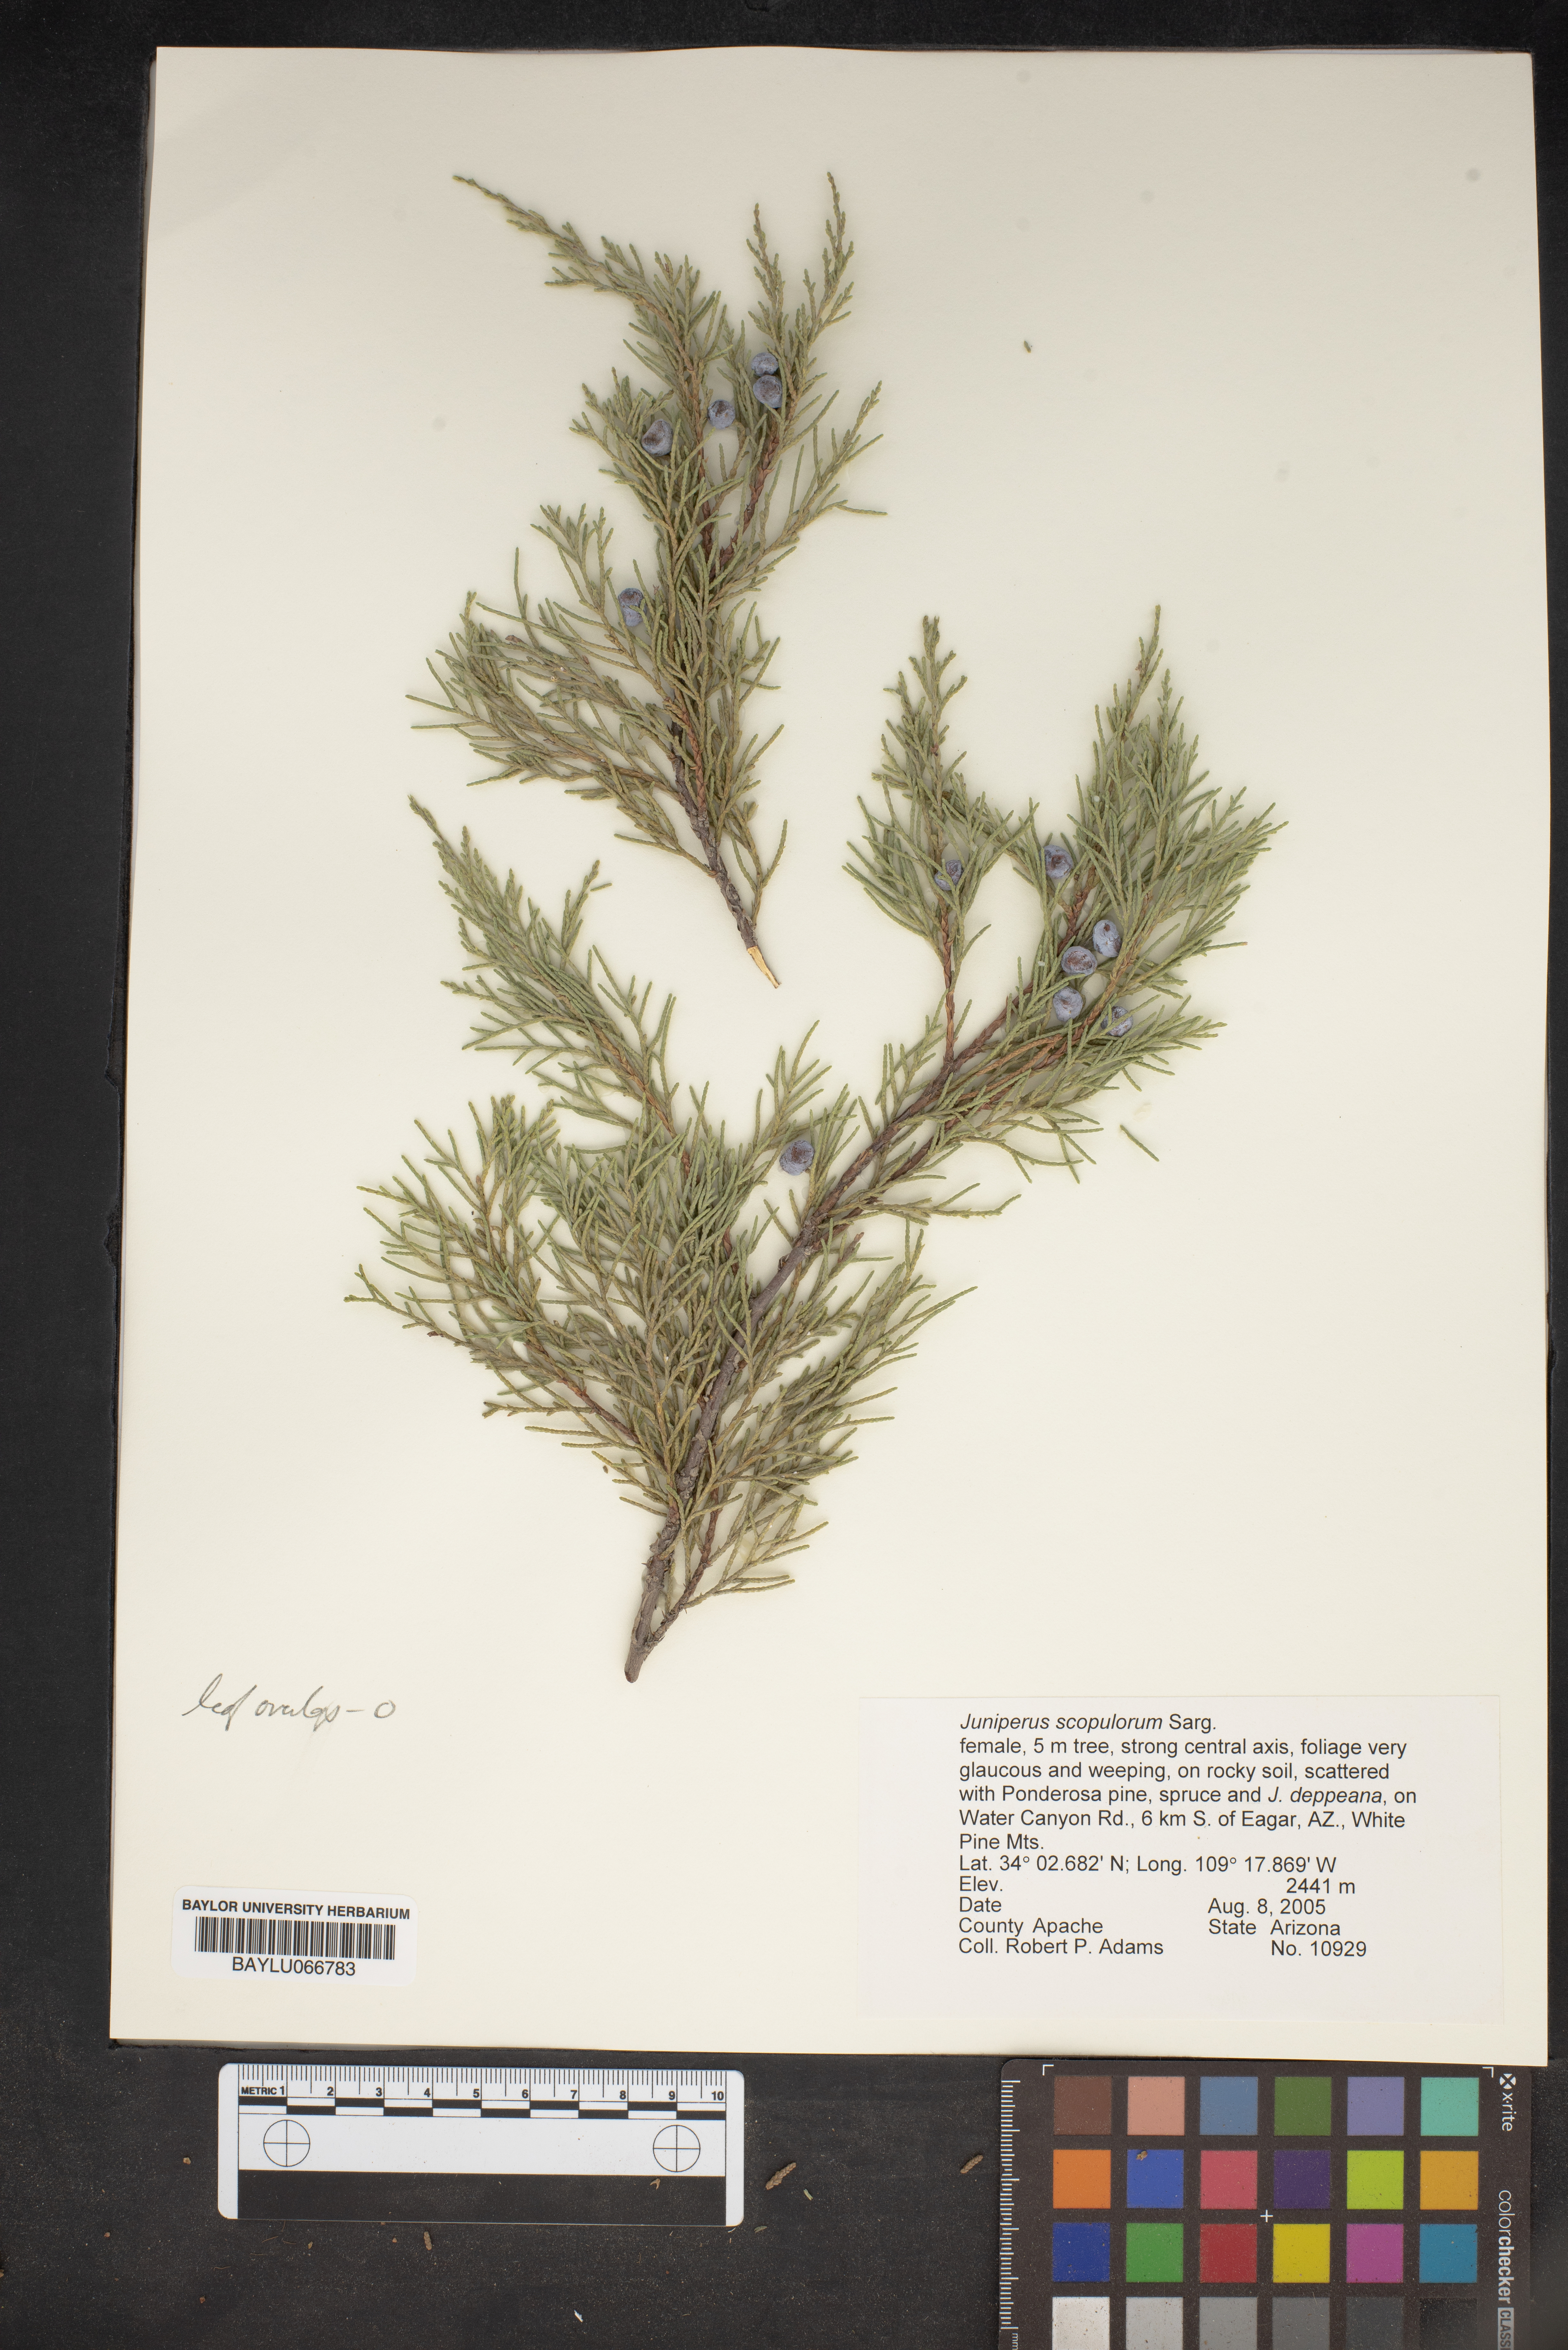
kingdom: Plantae
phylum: Tracheophyta
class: Pinopsida
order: Pinales
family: Cupressaceae
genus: Juniperus
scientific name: Juniperus scopulorum
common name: Rocky mountain juniper
